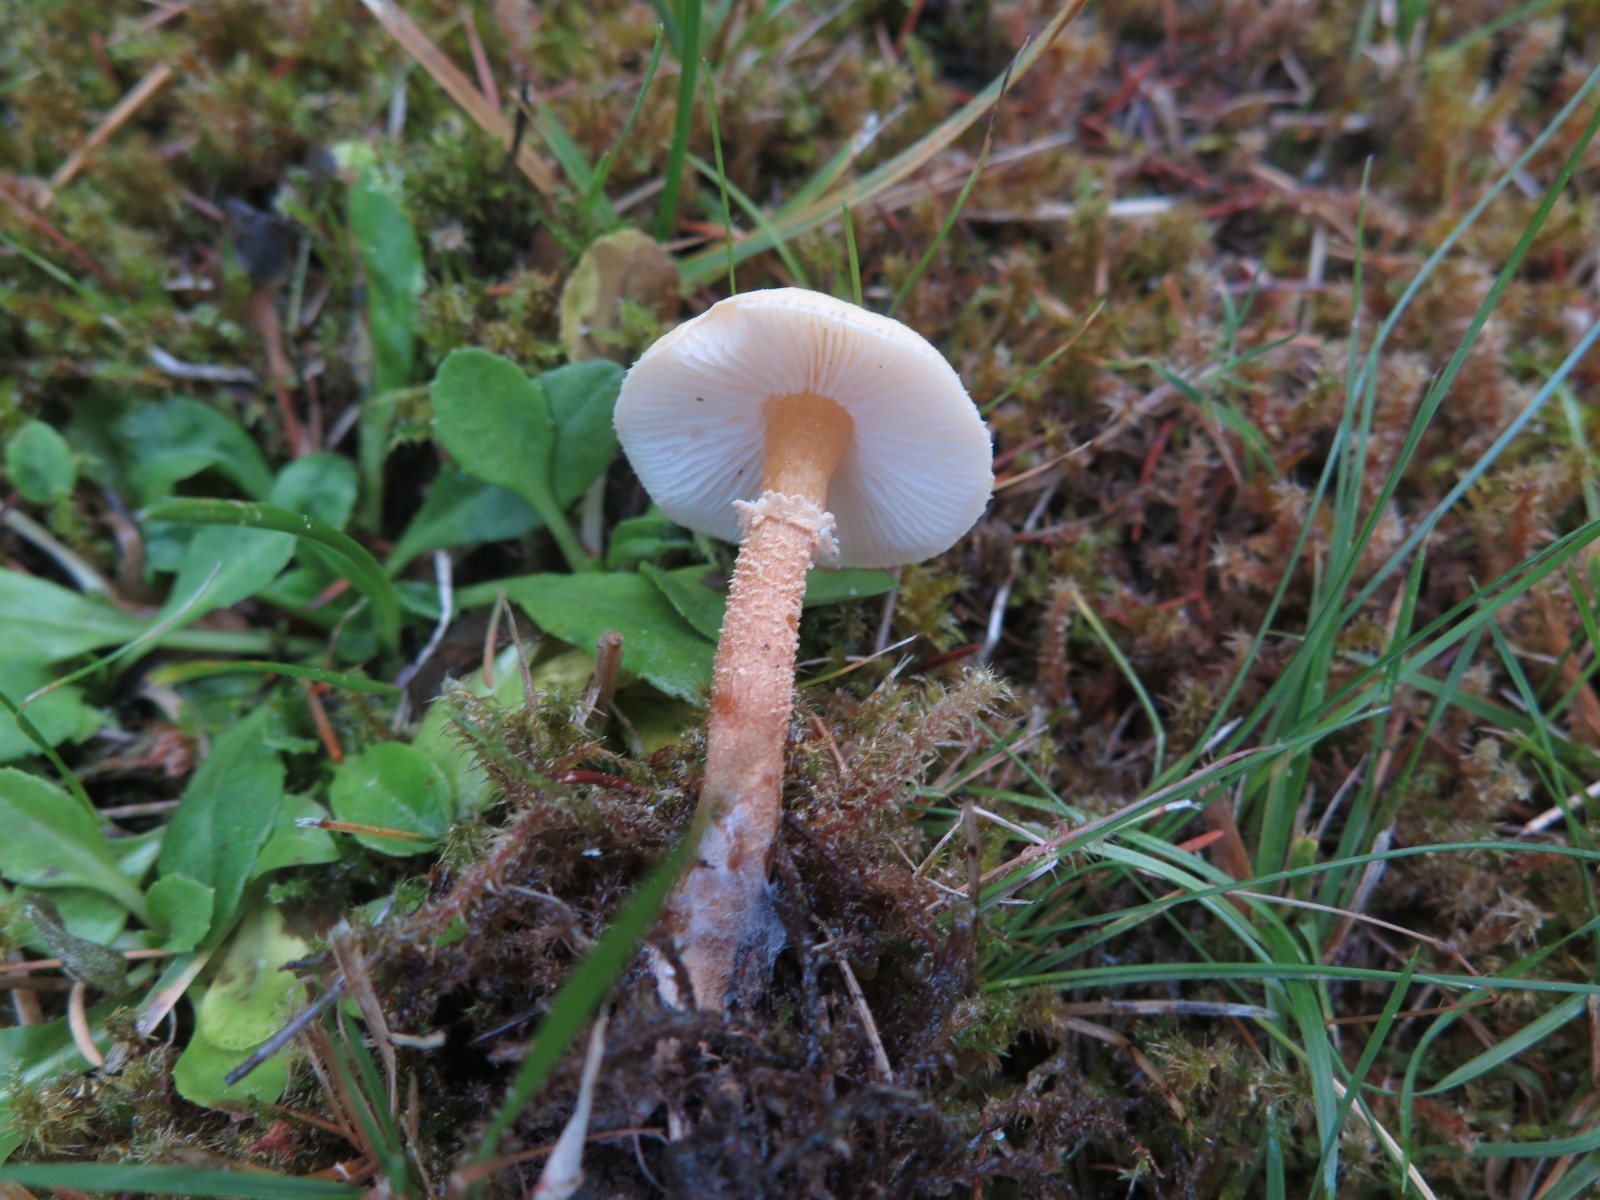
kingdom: Fungi
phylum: Basidiomycota
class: Agaricomycetes
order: Agaricales
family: Tricholomataceae
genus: Cystoderma
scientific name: Cystoderma amianthinum
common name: okkergul grynhat
